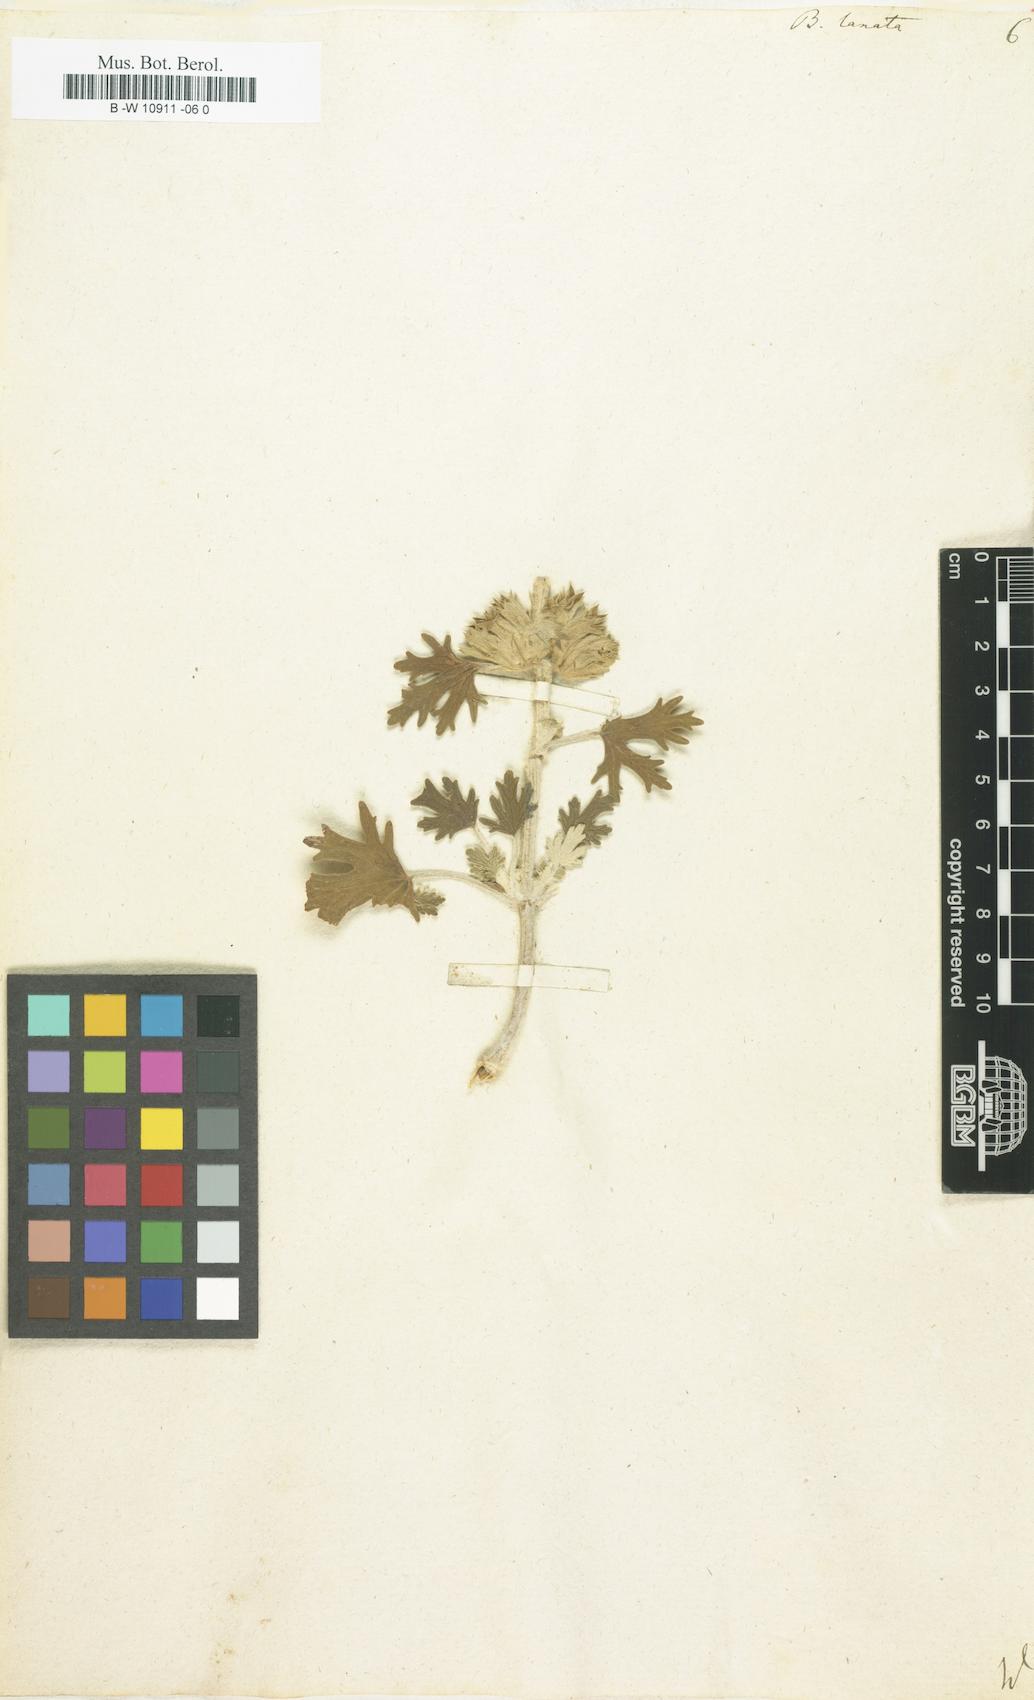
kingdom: Plantae
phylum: Tracheophyta
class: Magnoliopsida
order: Lamiales
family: Lamiaceae
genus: Ballota
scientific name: Ballota lanata
